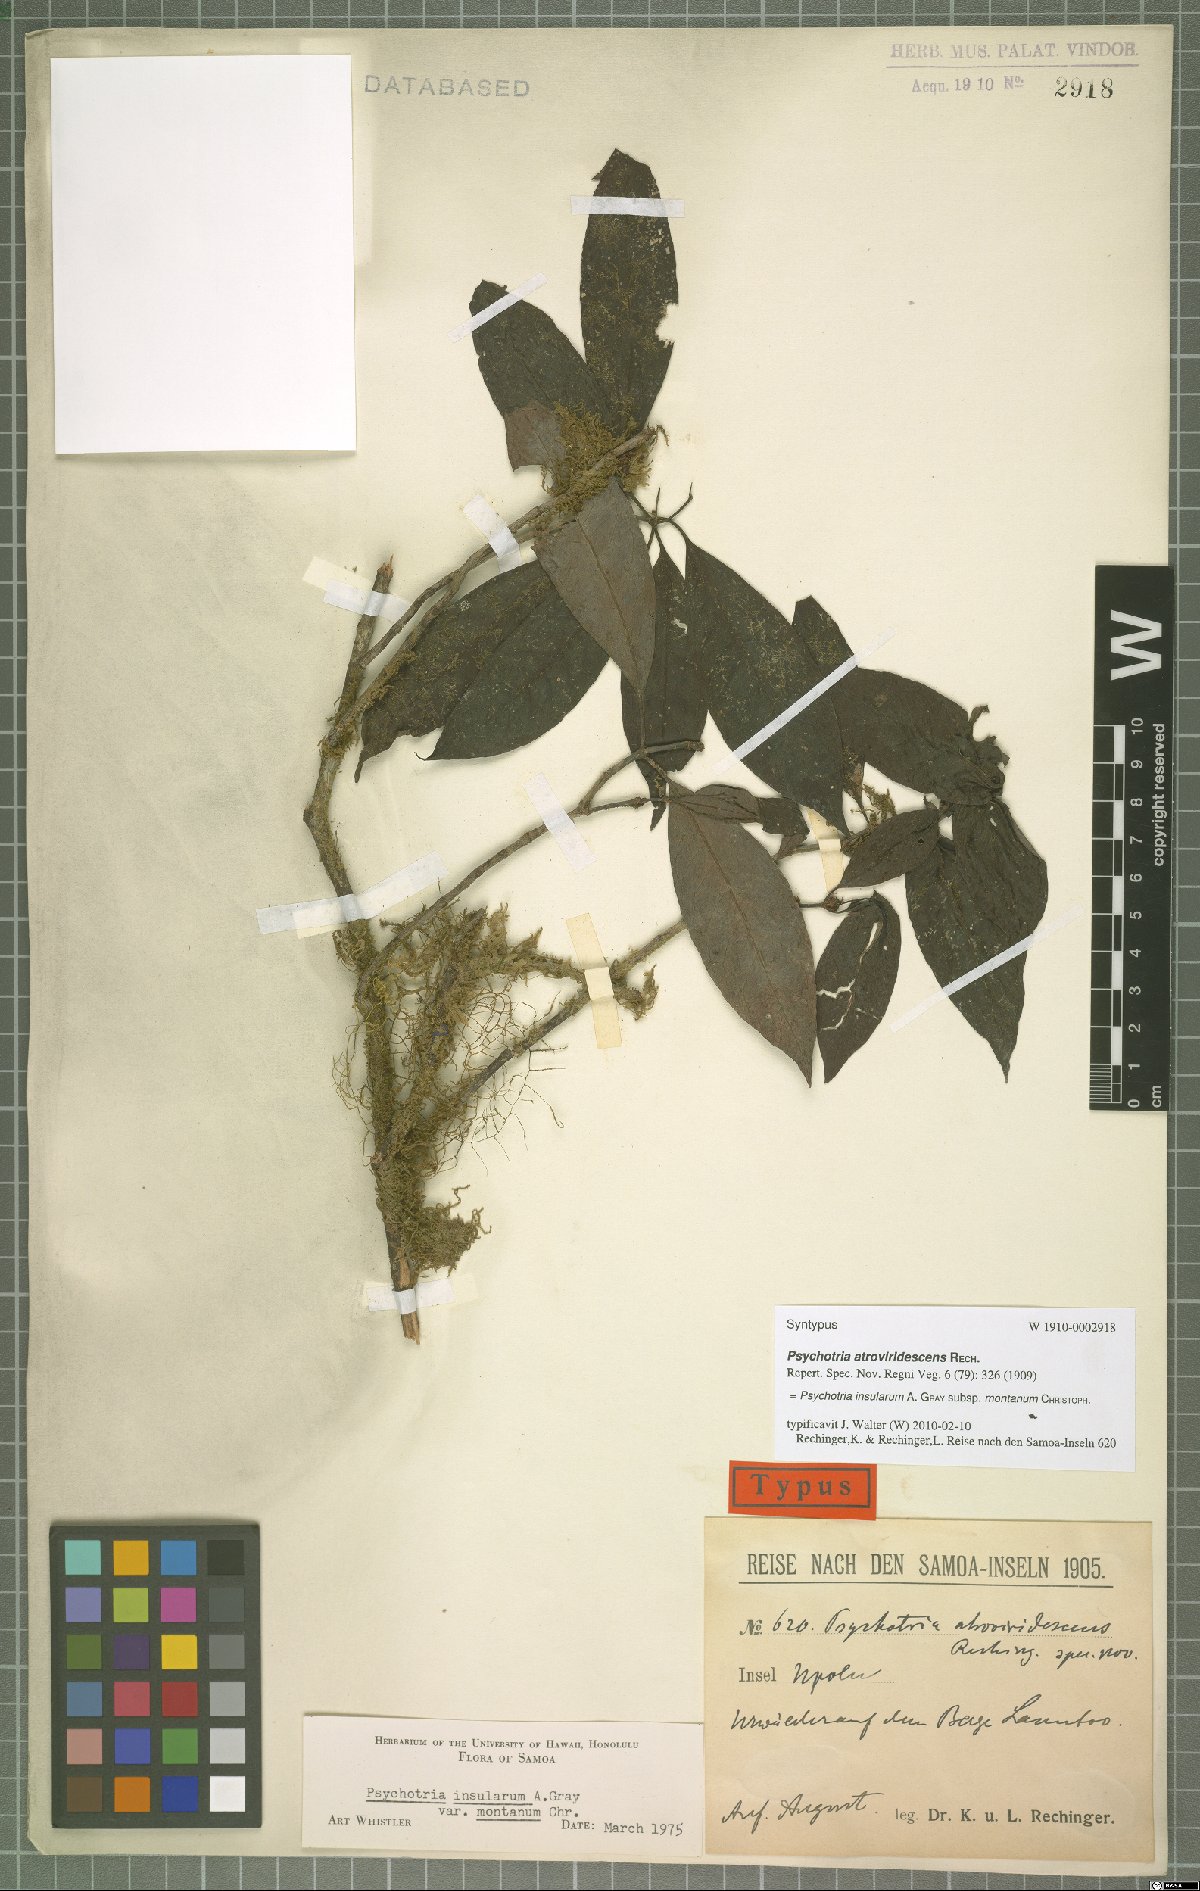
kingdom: Plantae
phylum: Tracheophyta
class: Magnoliopsida
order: Gentianales
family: Rubiaceae
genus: Psychotria
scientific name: Psychotria insularum
